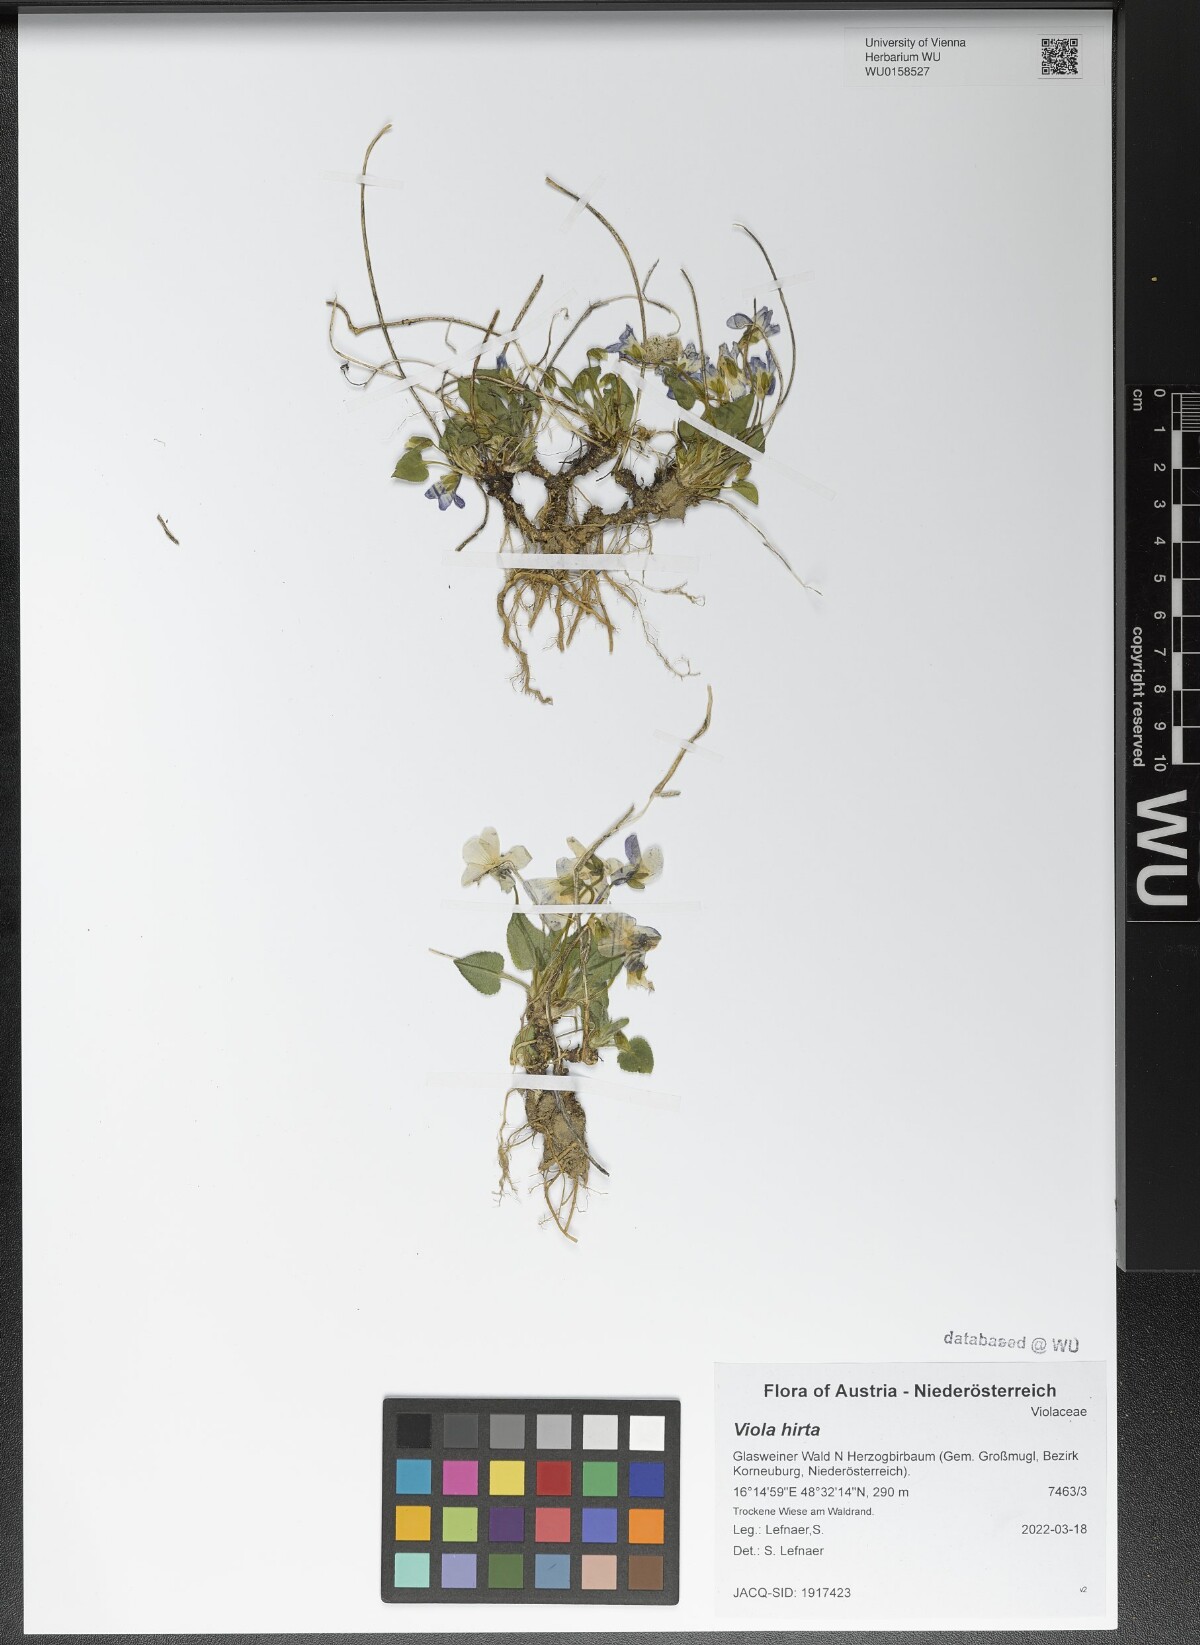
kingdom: Plantae
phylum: Tracheophyta
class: Magnoliopsida
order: Malpighiales
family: Violaceae
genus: Viola
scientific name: Viola hirta
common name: Hairy violet
